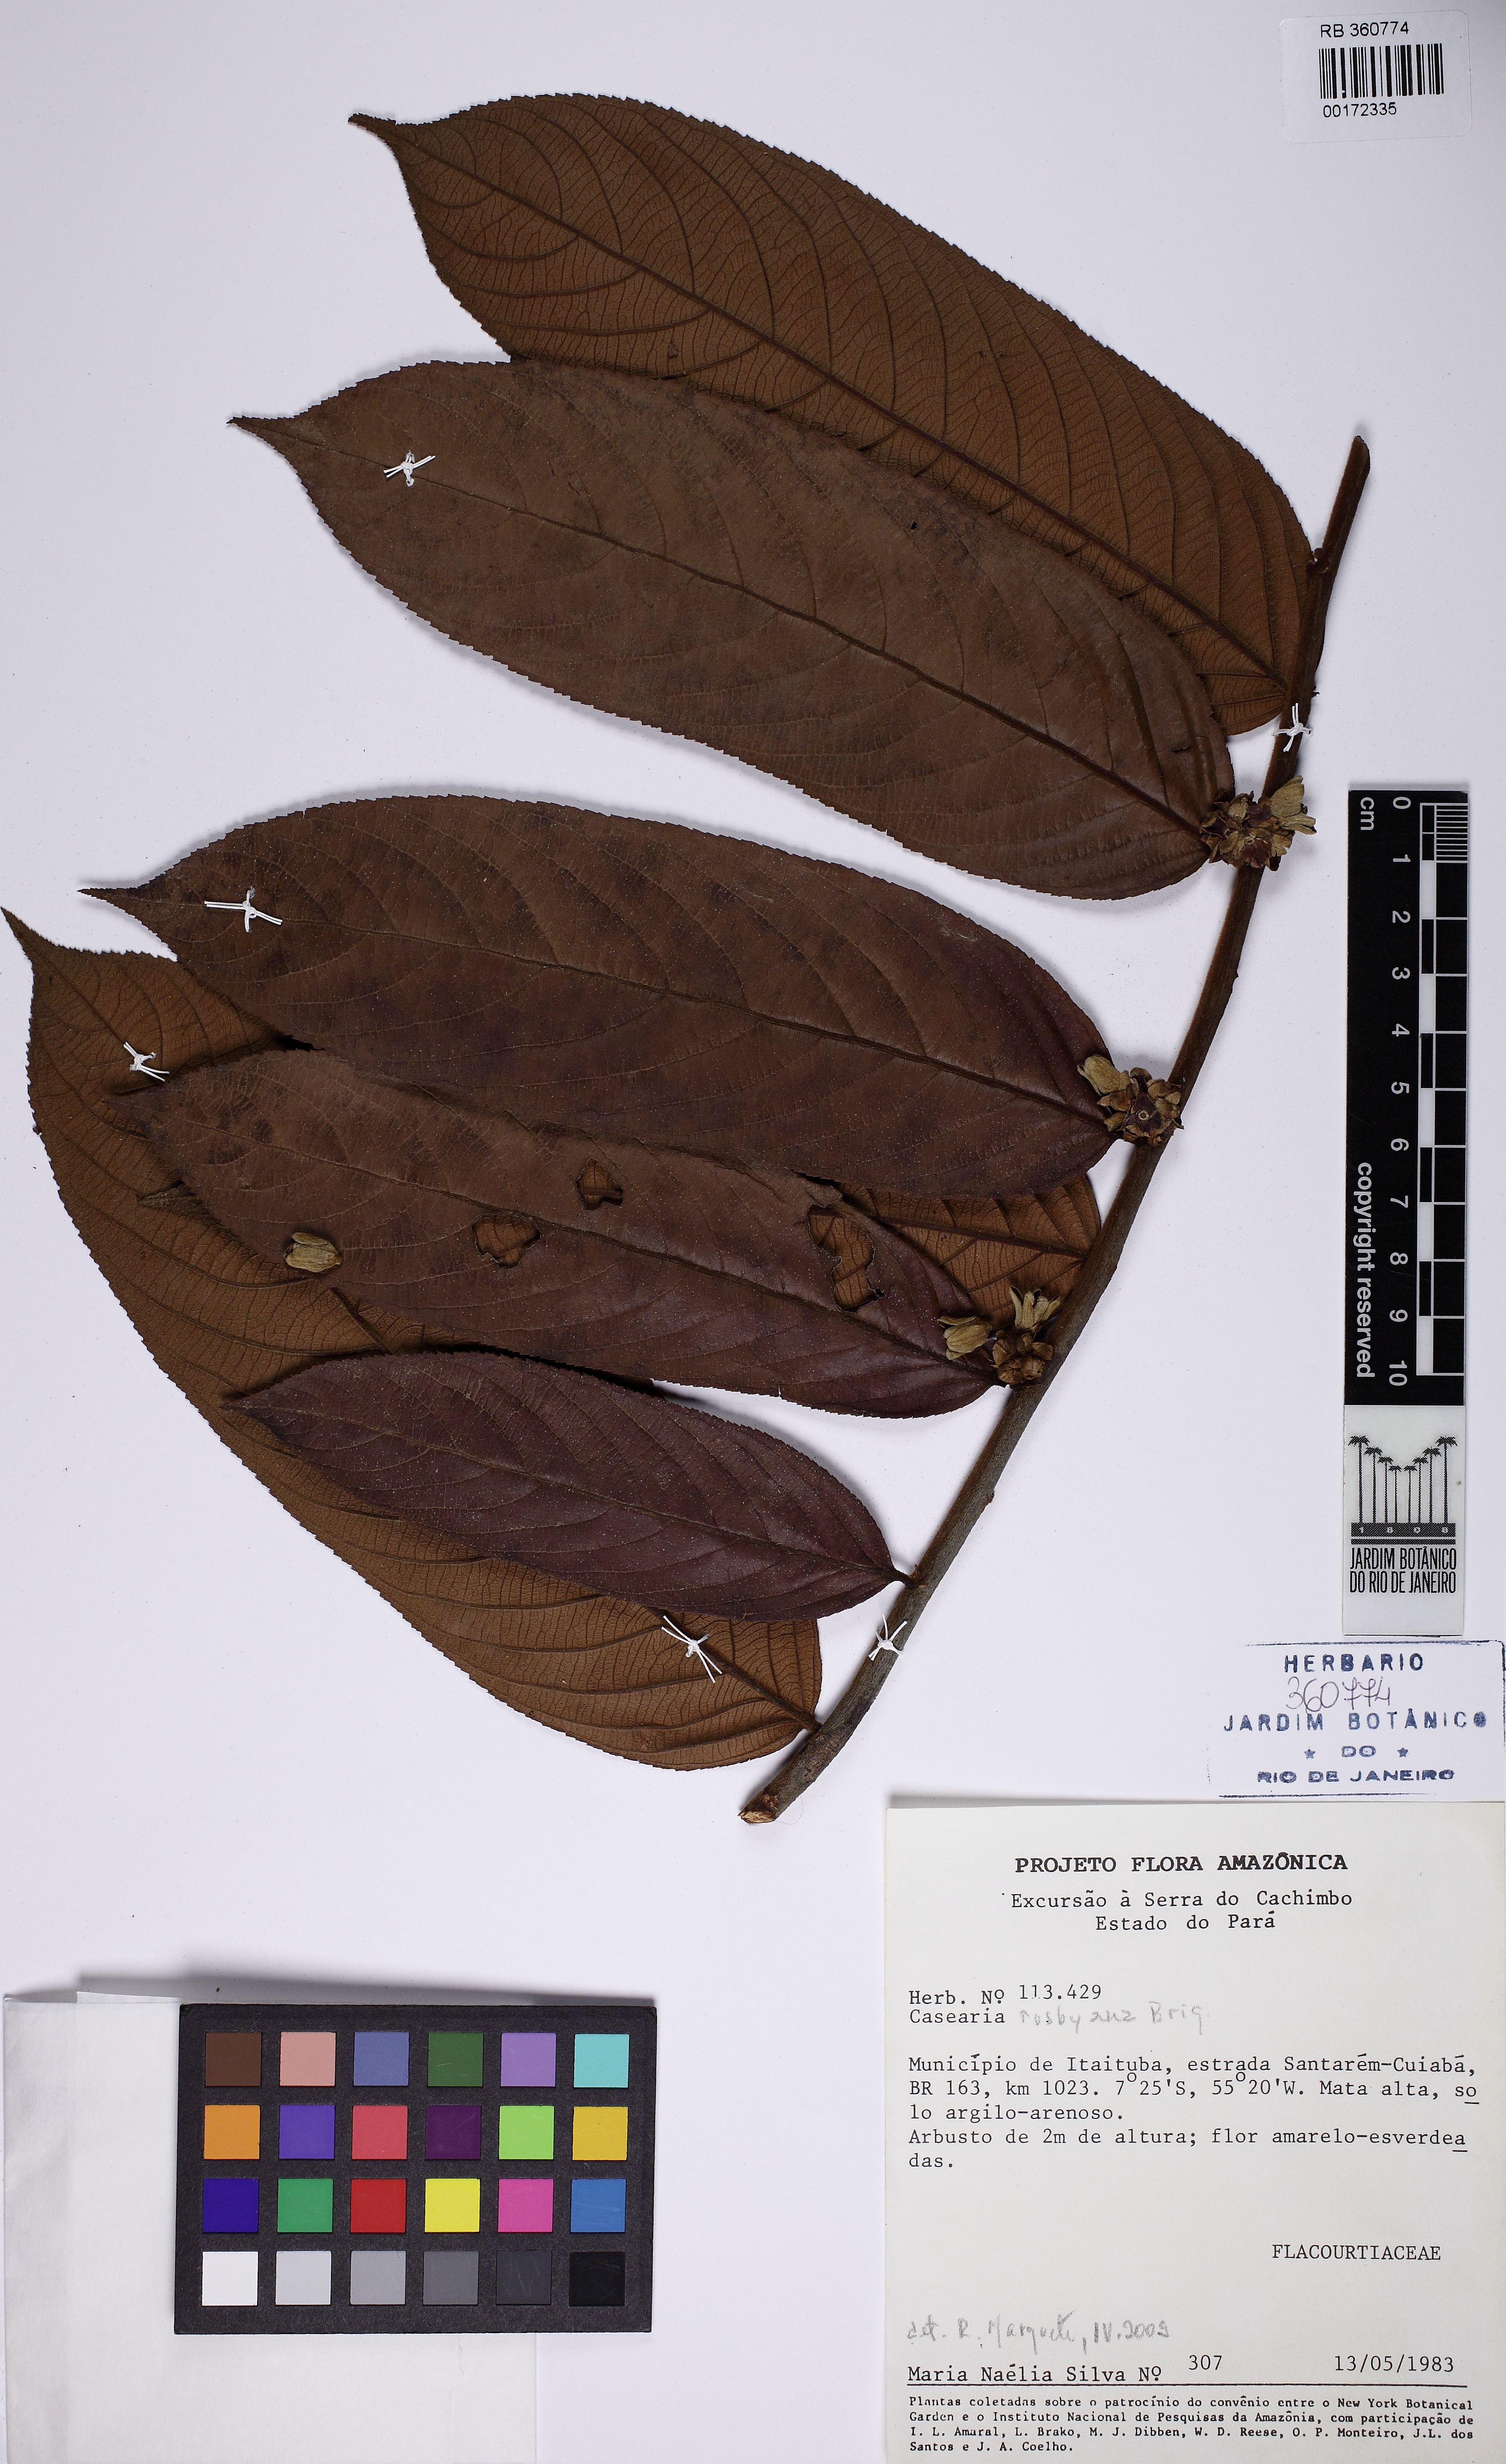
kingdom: Plantae
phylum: Tracheophyta
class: Magnoliopsida
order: Malpighiales
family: Salicaceae
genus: Casearia
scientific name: Casearia rusbyana
